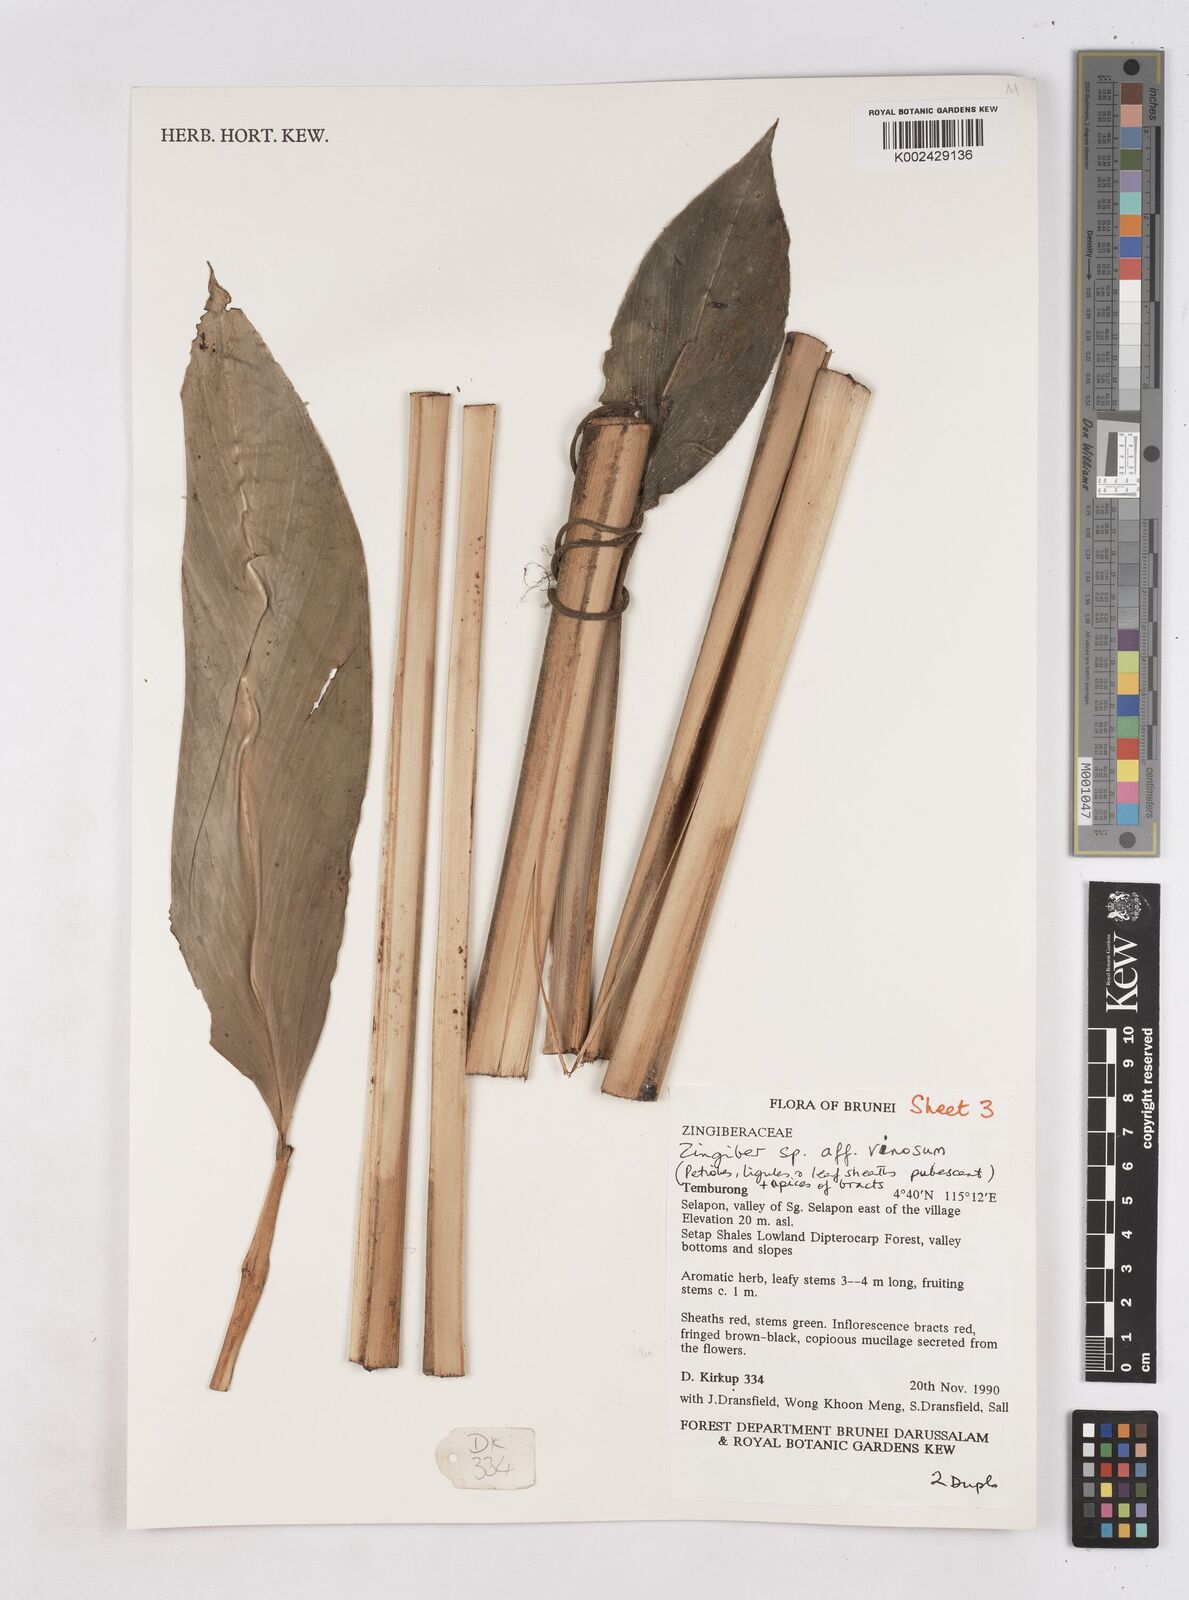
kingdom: Plantae
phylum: Tracheophyta
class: Liliopsida
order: Zingiberales
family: Zingiberaceae
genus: Zingiber
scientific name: Zingiber vinosum
